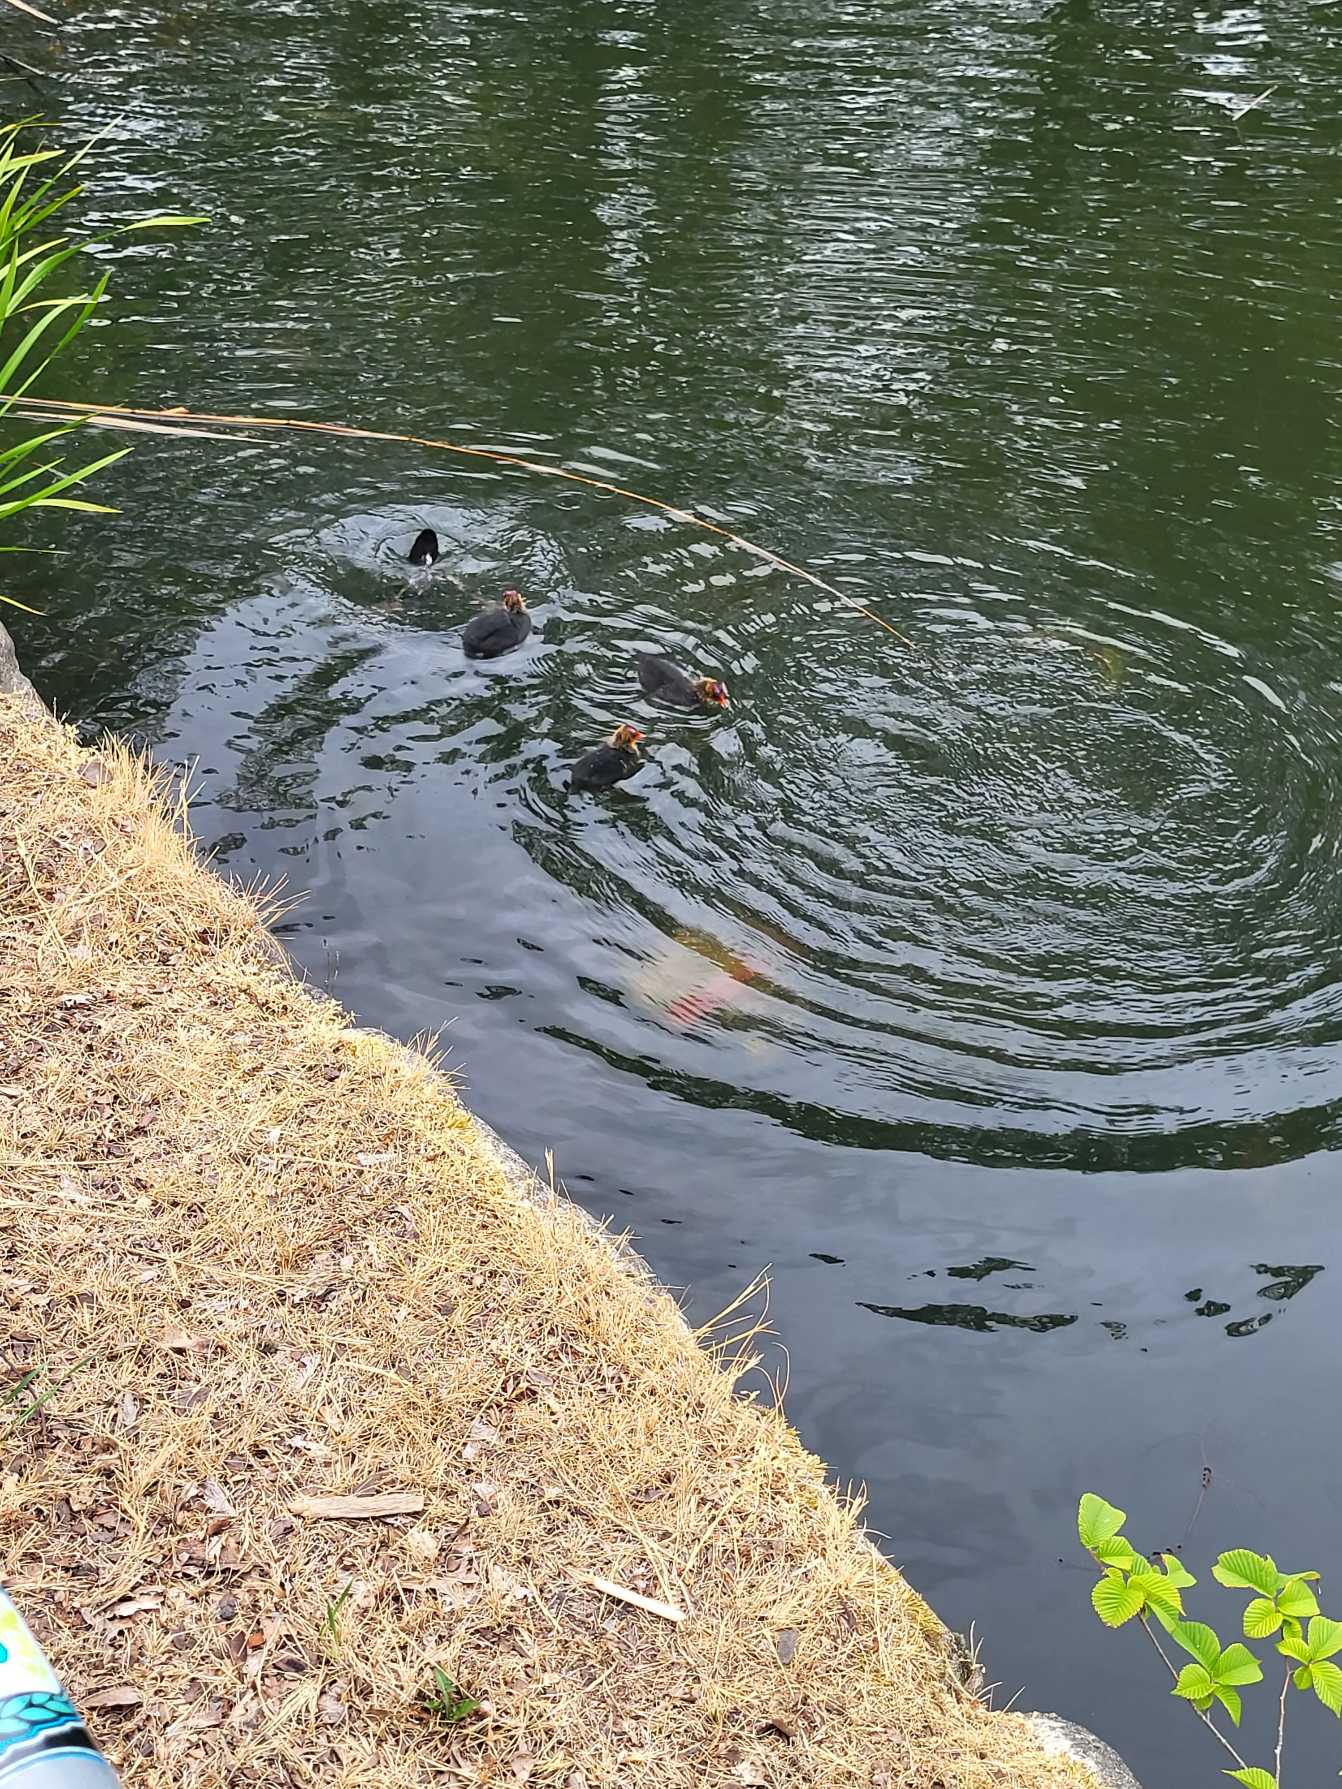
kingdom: Animalia
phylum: Chordata
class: Aves
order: Gruiformes
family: Rallidae
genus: Fulica
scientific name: Fulica atra
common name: Blishøne
